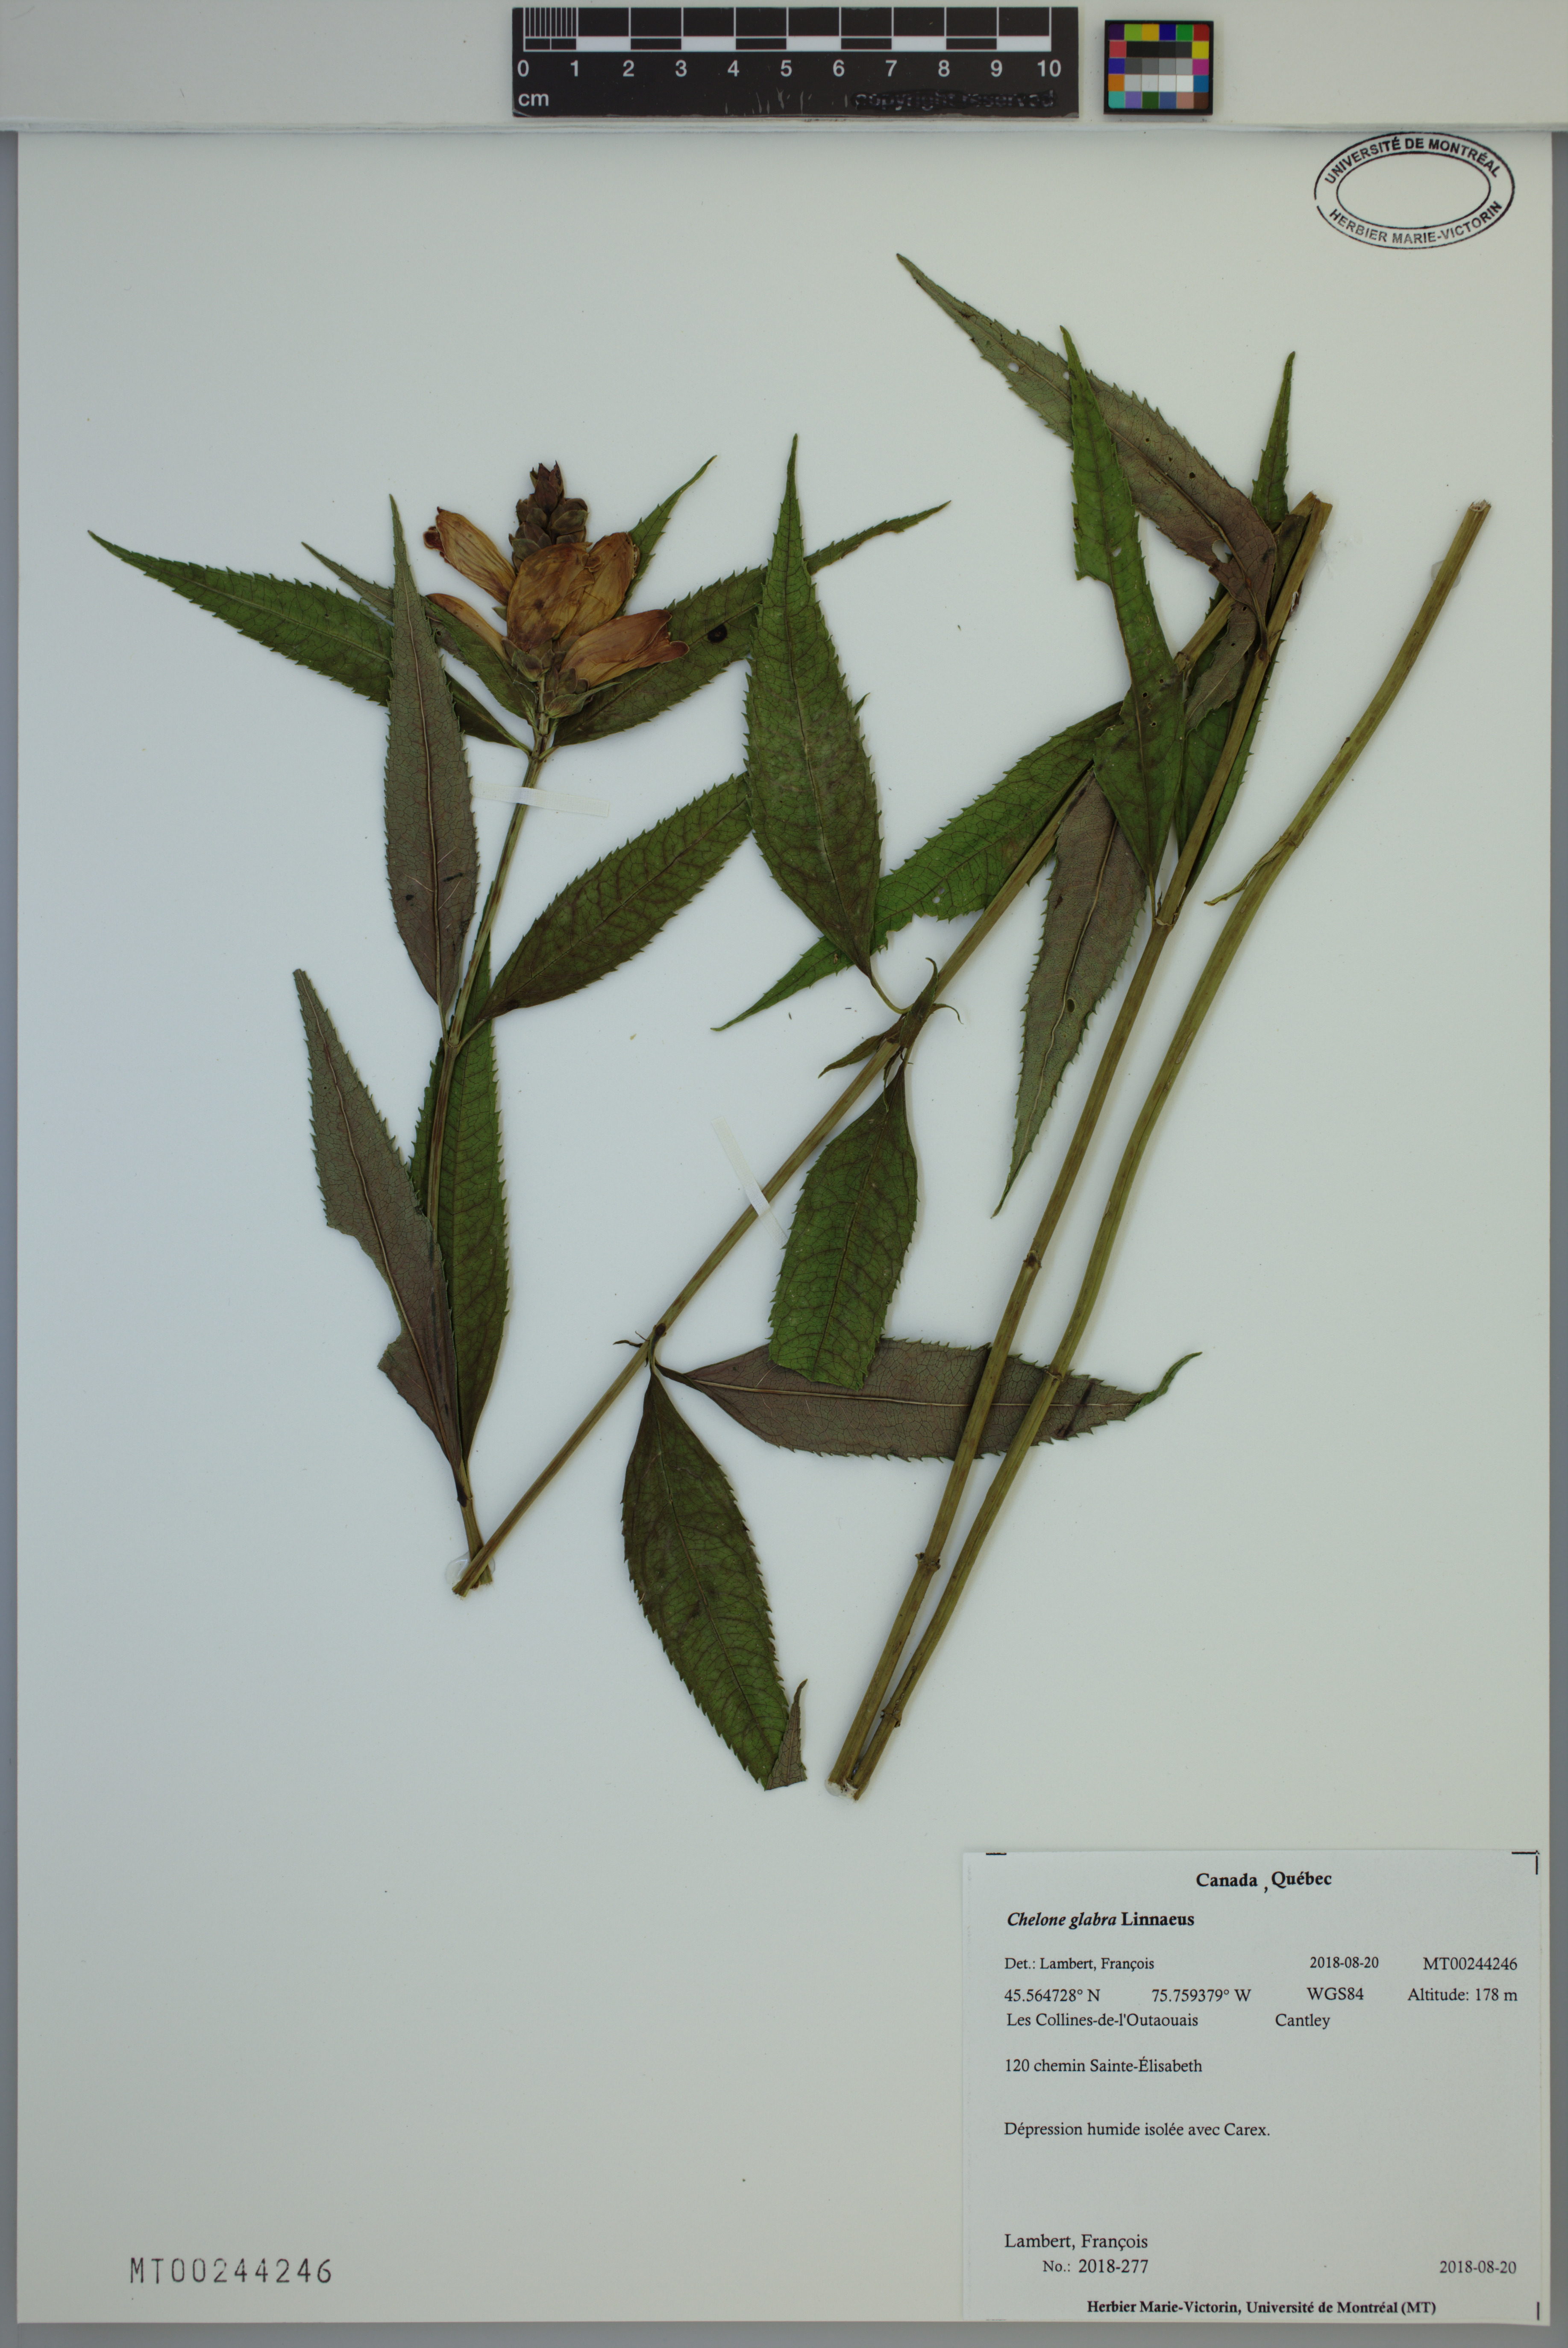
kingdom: Plantae
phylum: Tracheophyta
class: Magnoliopsida
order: Lamiales
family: Plantaginaceae
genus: Chelone
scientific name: Chelone glabra
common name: Snakehead
